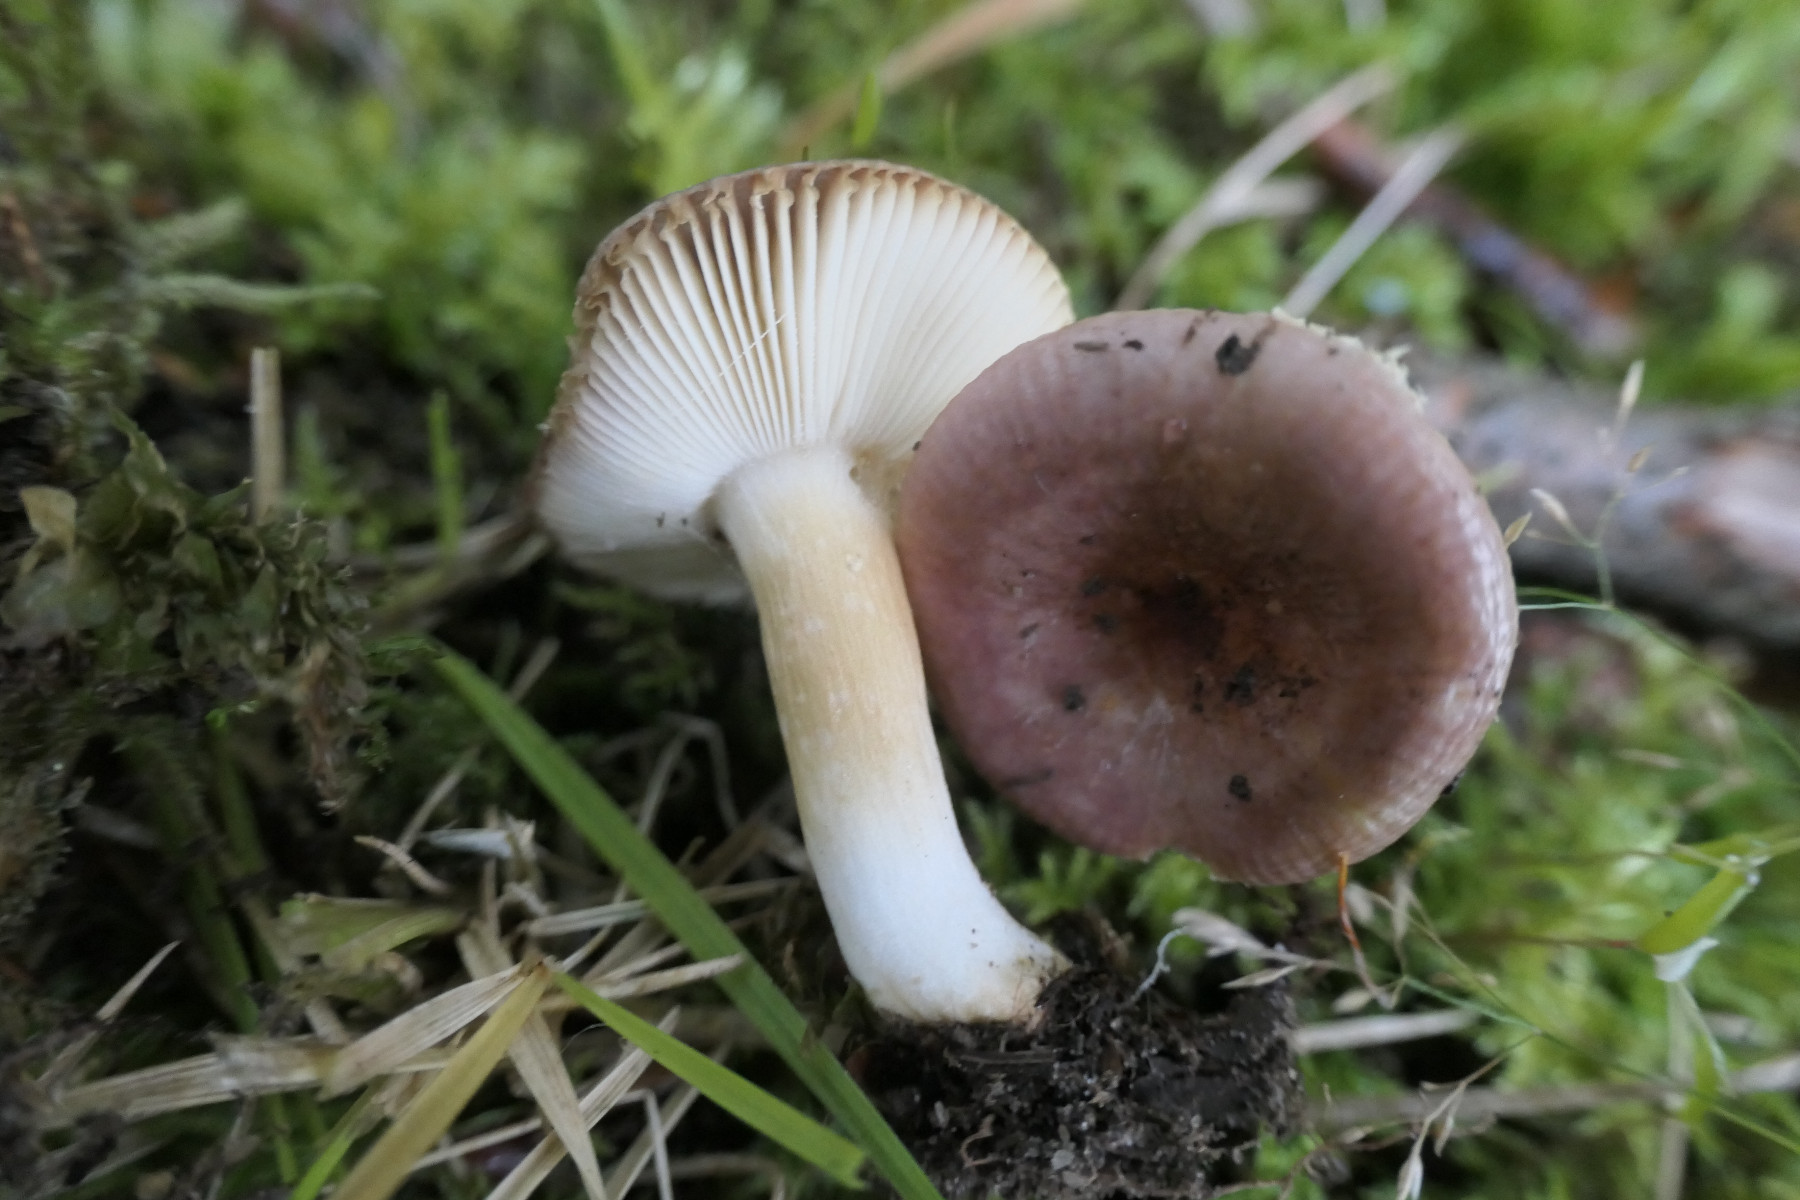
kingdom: Fungi
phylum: Basidiomycota
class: Agaricomycetes
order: Russulales
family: Russulaceae
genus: Russula
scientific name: Russula puellaris
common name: gulstokket skørhat
